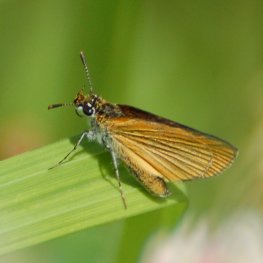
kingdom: Animalia
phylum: Arthropoda
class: Insecta
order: Lepidoptera
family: Hesperiidae
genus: Ancyloxypha
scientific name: Ancyloxypha numitor
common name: Least Skipper
